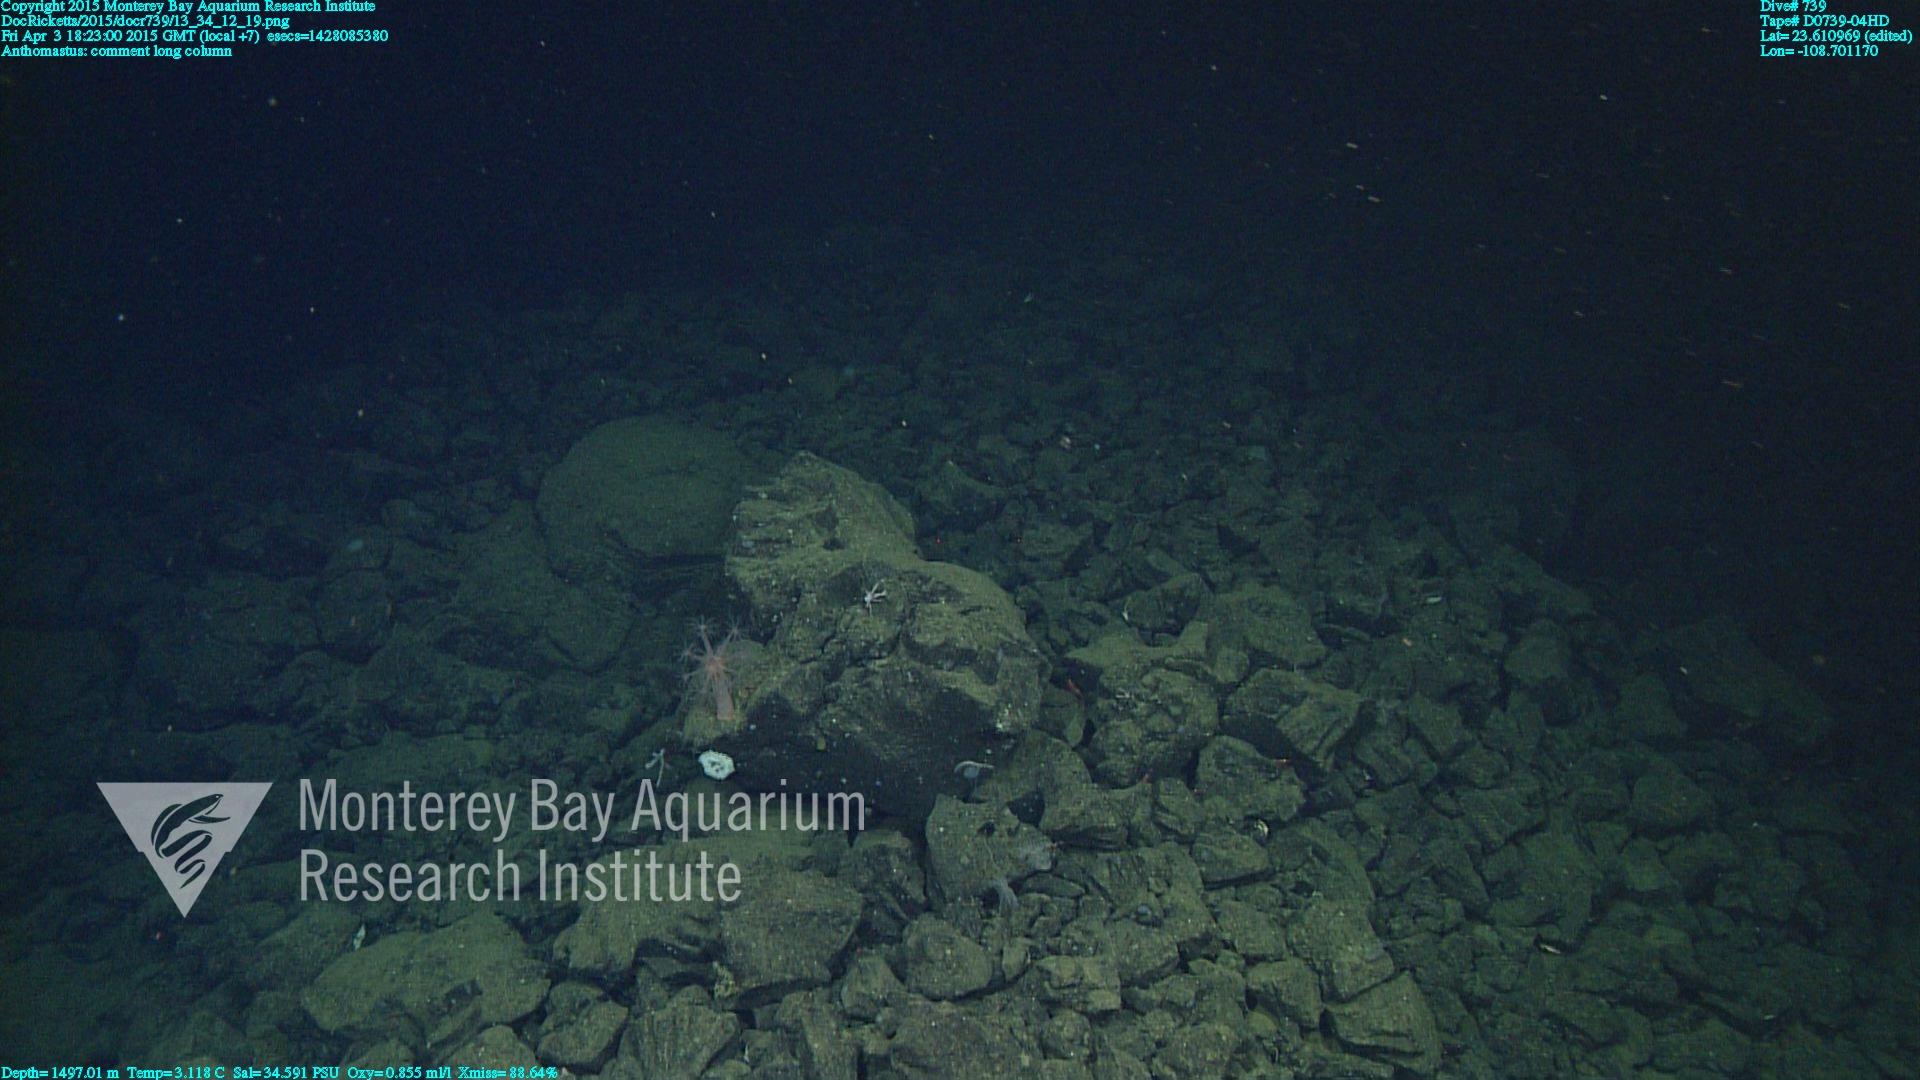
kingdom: Animalia
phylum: Cnidaria
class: Anthozoa
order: Scleralcyonacea
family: Coralliidae
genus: Heteropolypus
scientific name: Heteropolypus
